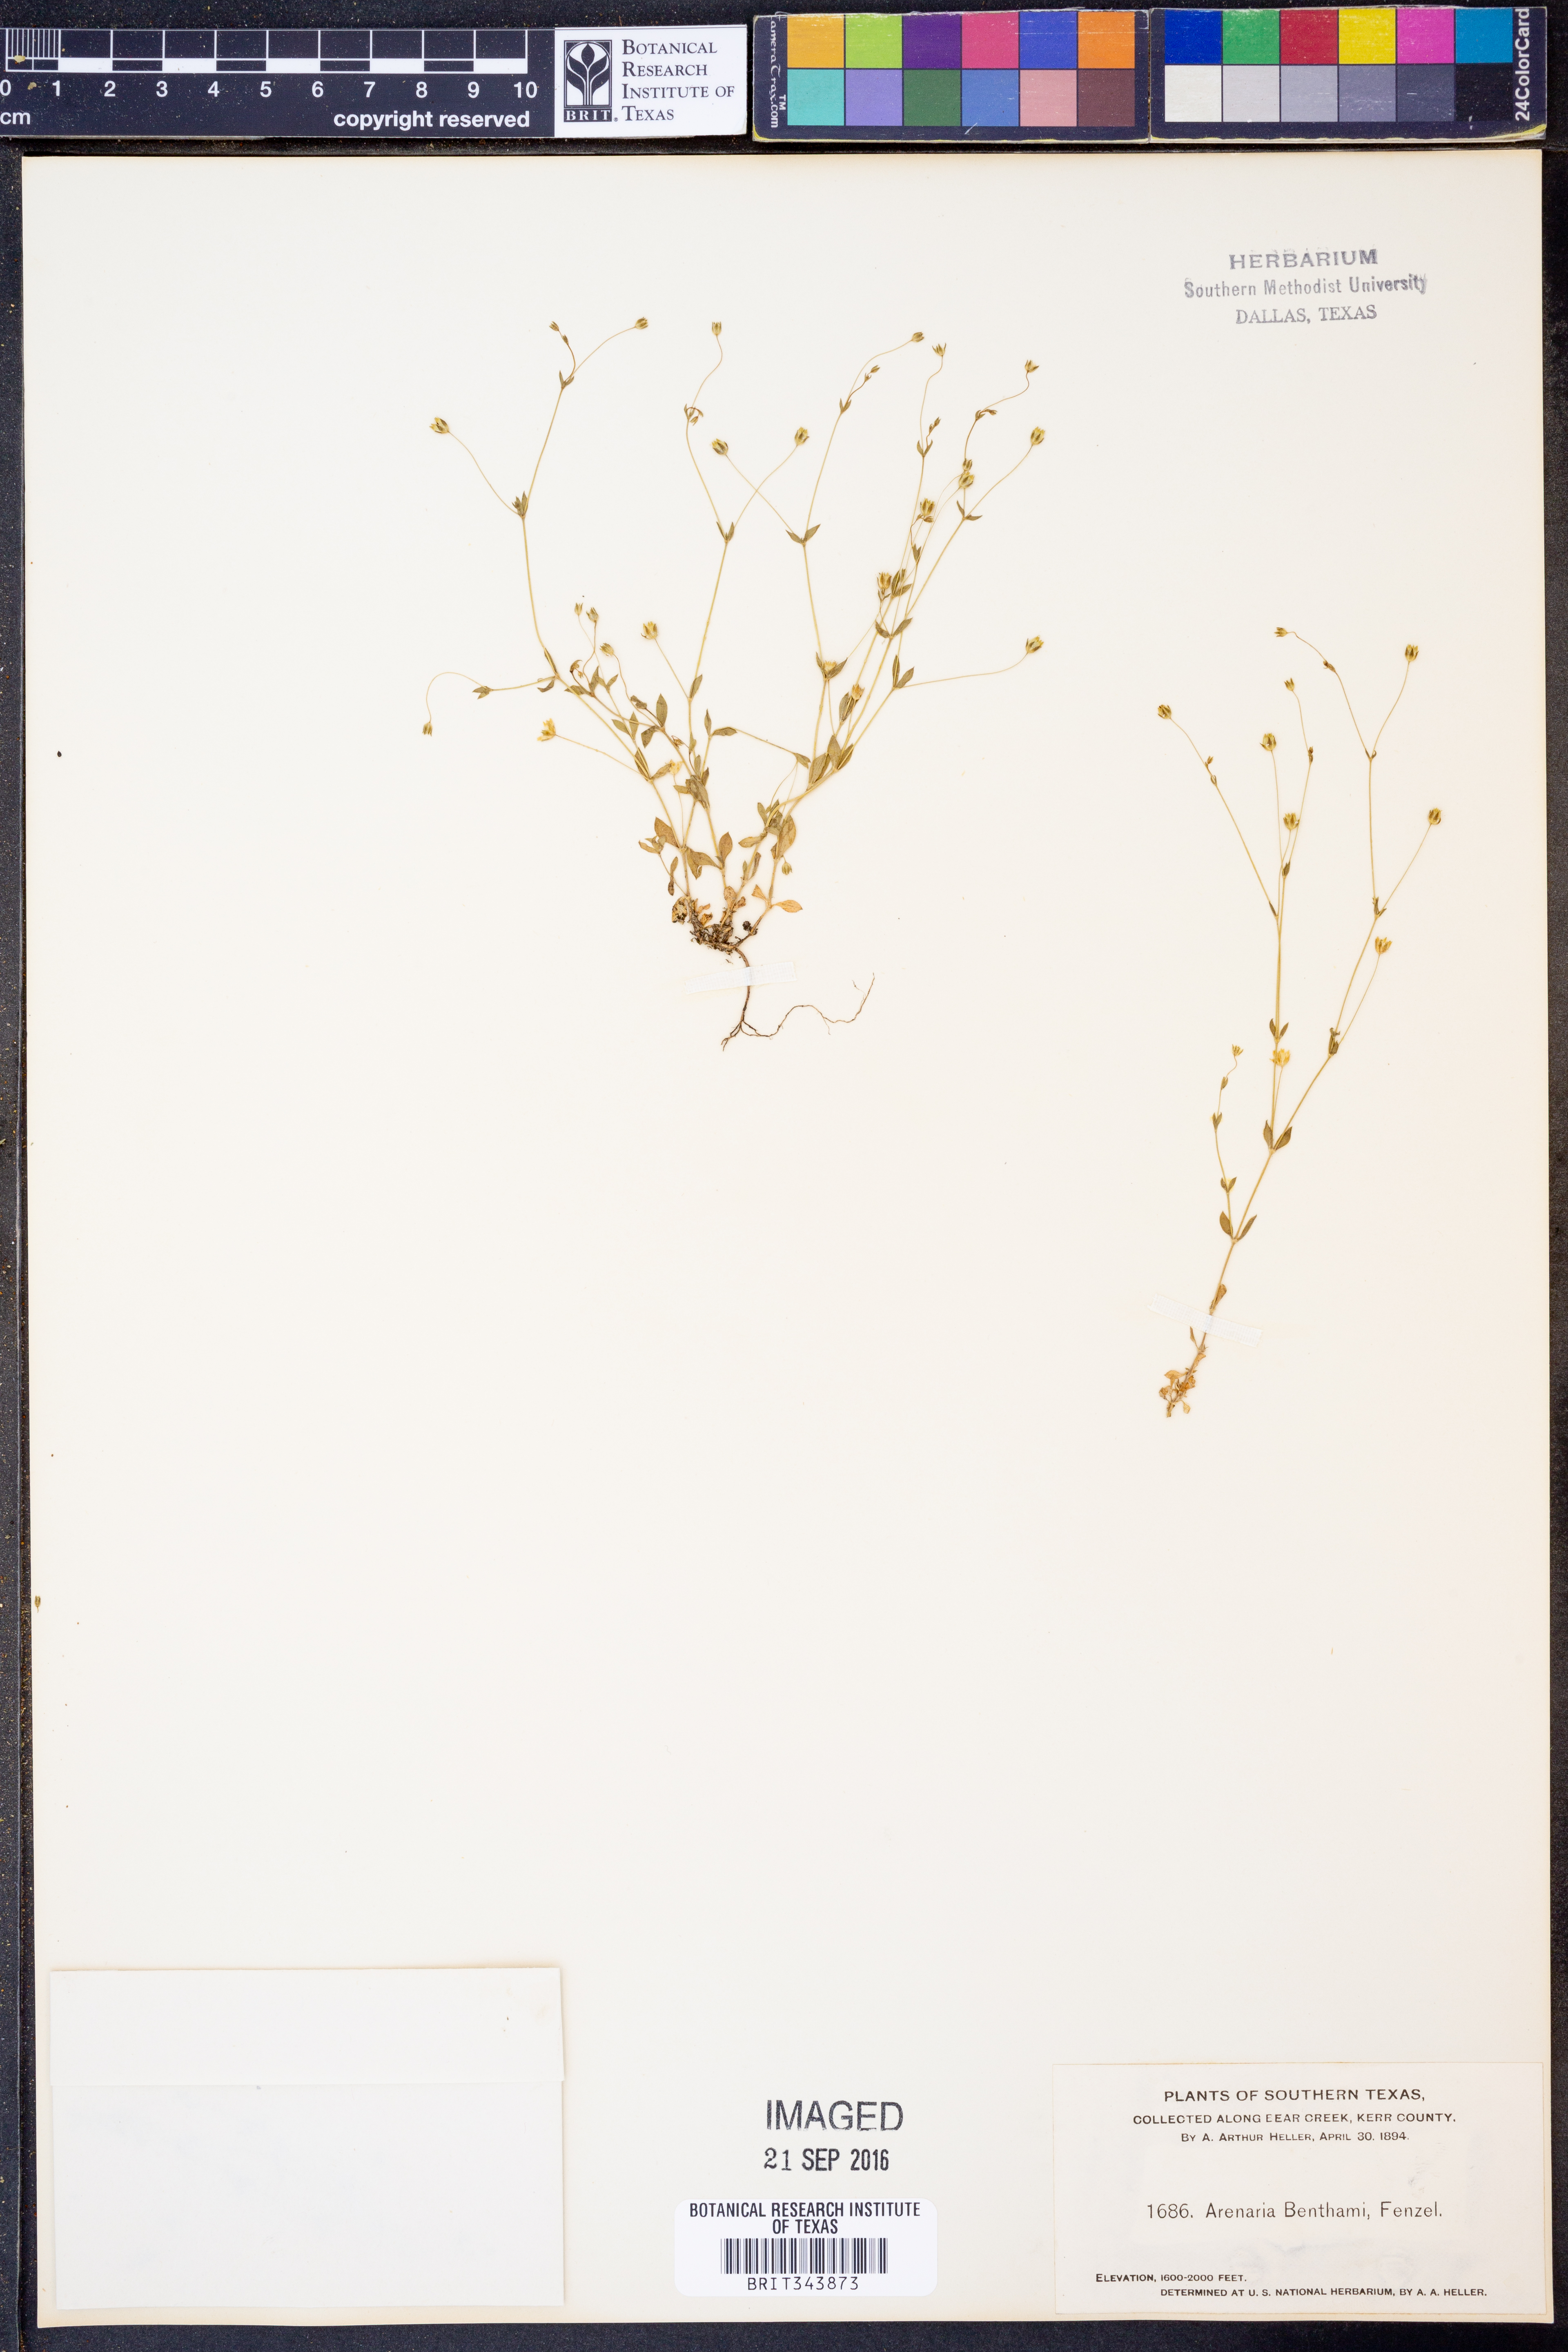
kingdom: Plantae
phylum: Tracheophyta
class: Magnoliopsida
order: Caryophyllales
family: Caryophyllaceae
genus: Arenaria
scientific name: Arenaria benthamii
